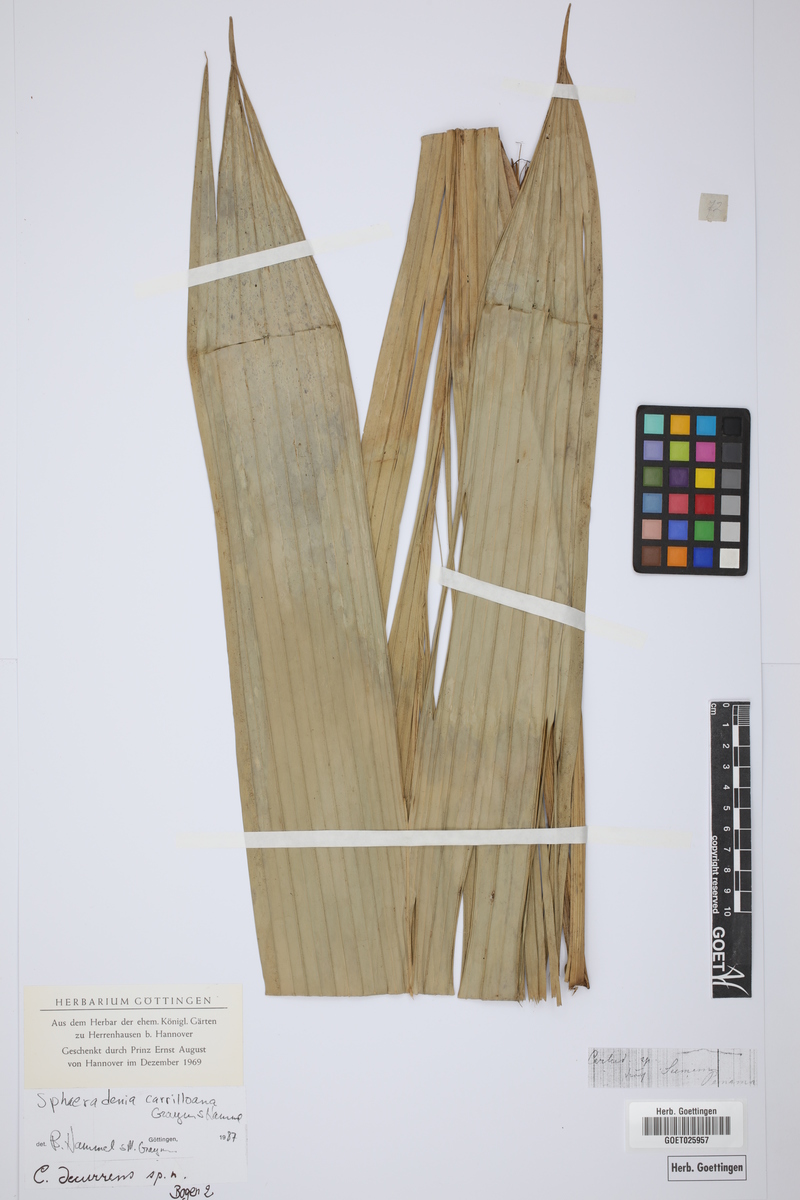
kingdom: Plantae
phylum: Tracheophyta
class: Liliopsida
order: Pandanales
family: Cyclanthaceae
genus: Sphaeradenia
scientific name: Sphaeradenia acutitepala
